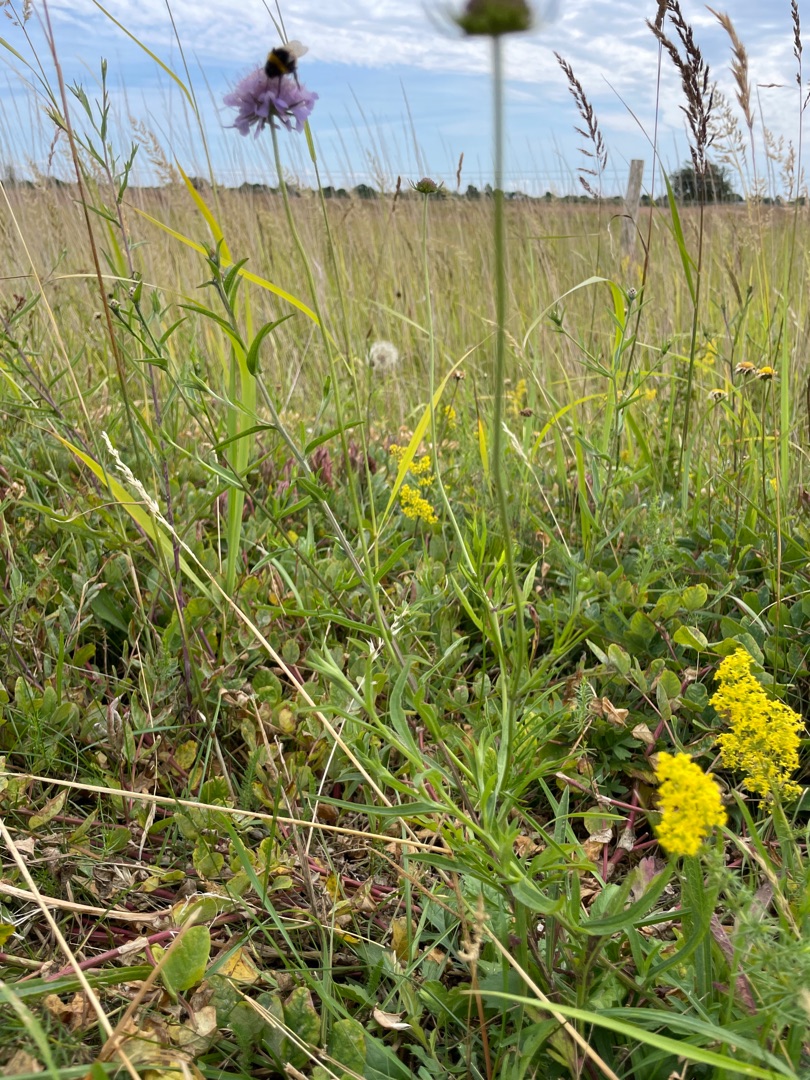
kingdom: Plantae
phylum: Tracheophyta
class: Magnoliopsida
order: Dipsacales
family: Caprifoliaceae
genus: Scabiosa
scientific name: Scabiosa columbaria
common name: Due-skabiose
